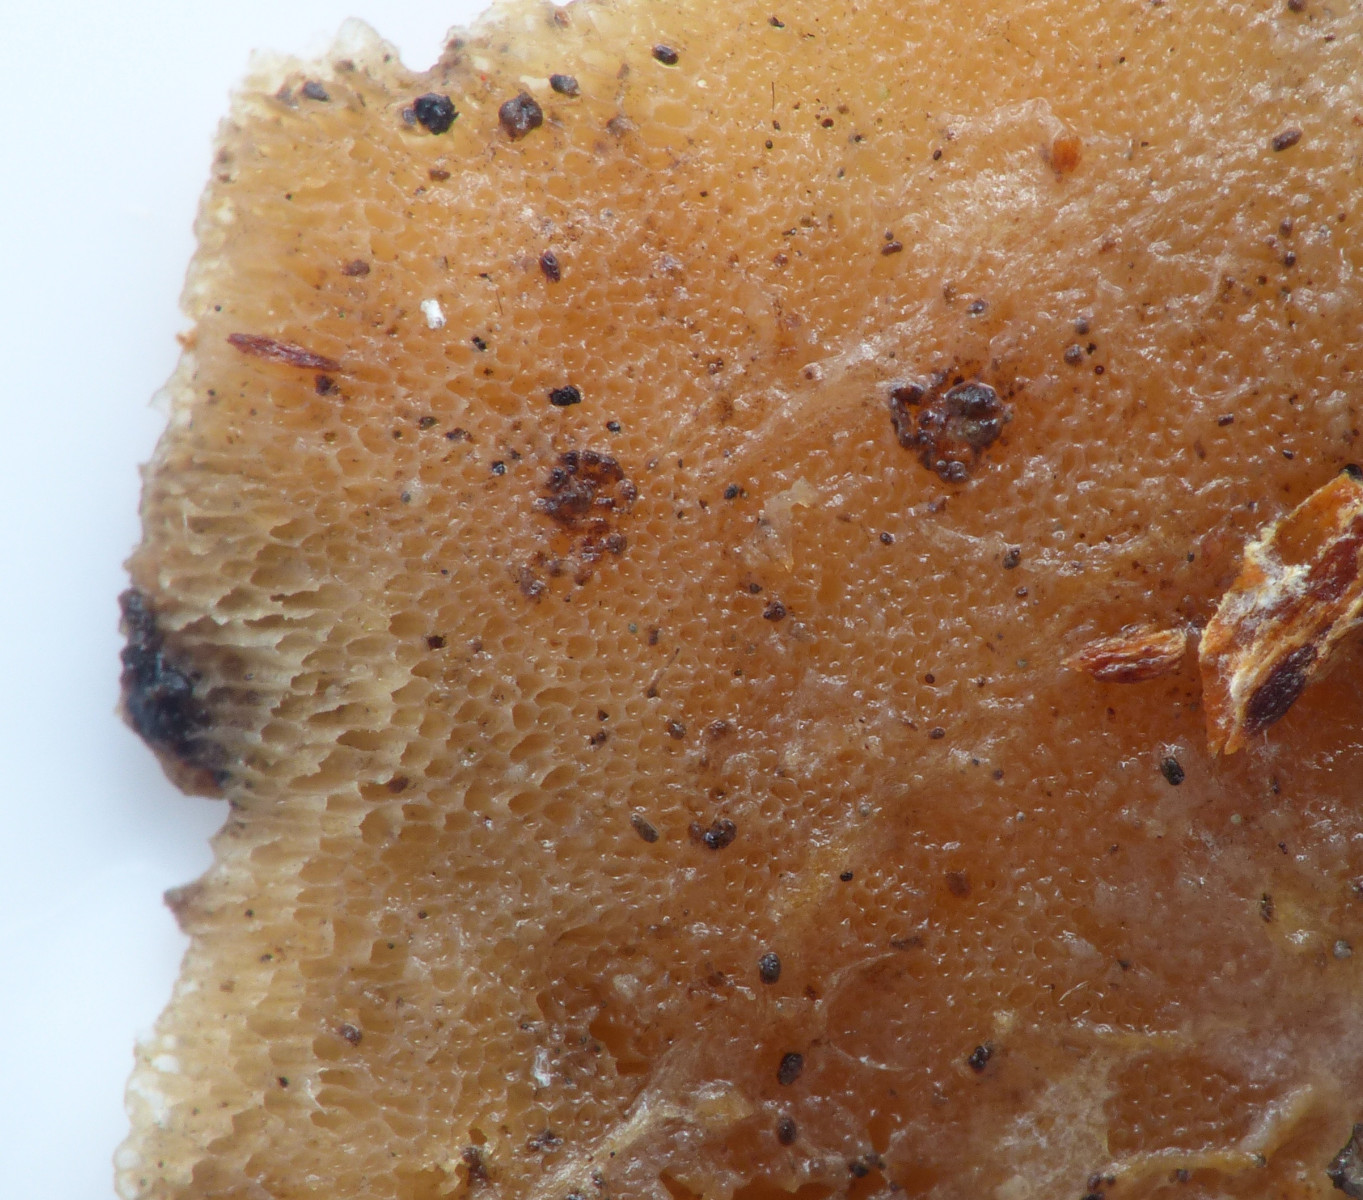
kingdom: Fungi
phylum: Basidiomycota
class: Agaricomycetes
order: Polyporales
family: Meruliaceae
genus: Physisporinus
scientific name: Physisporinus
